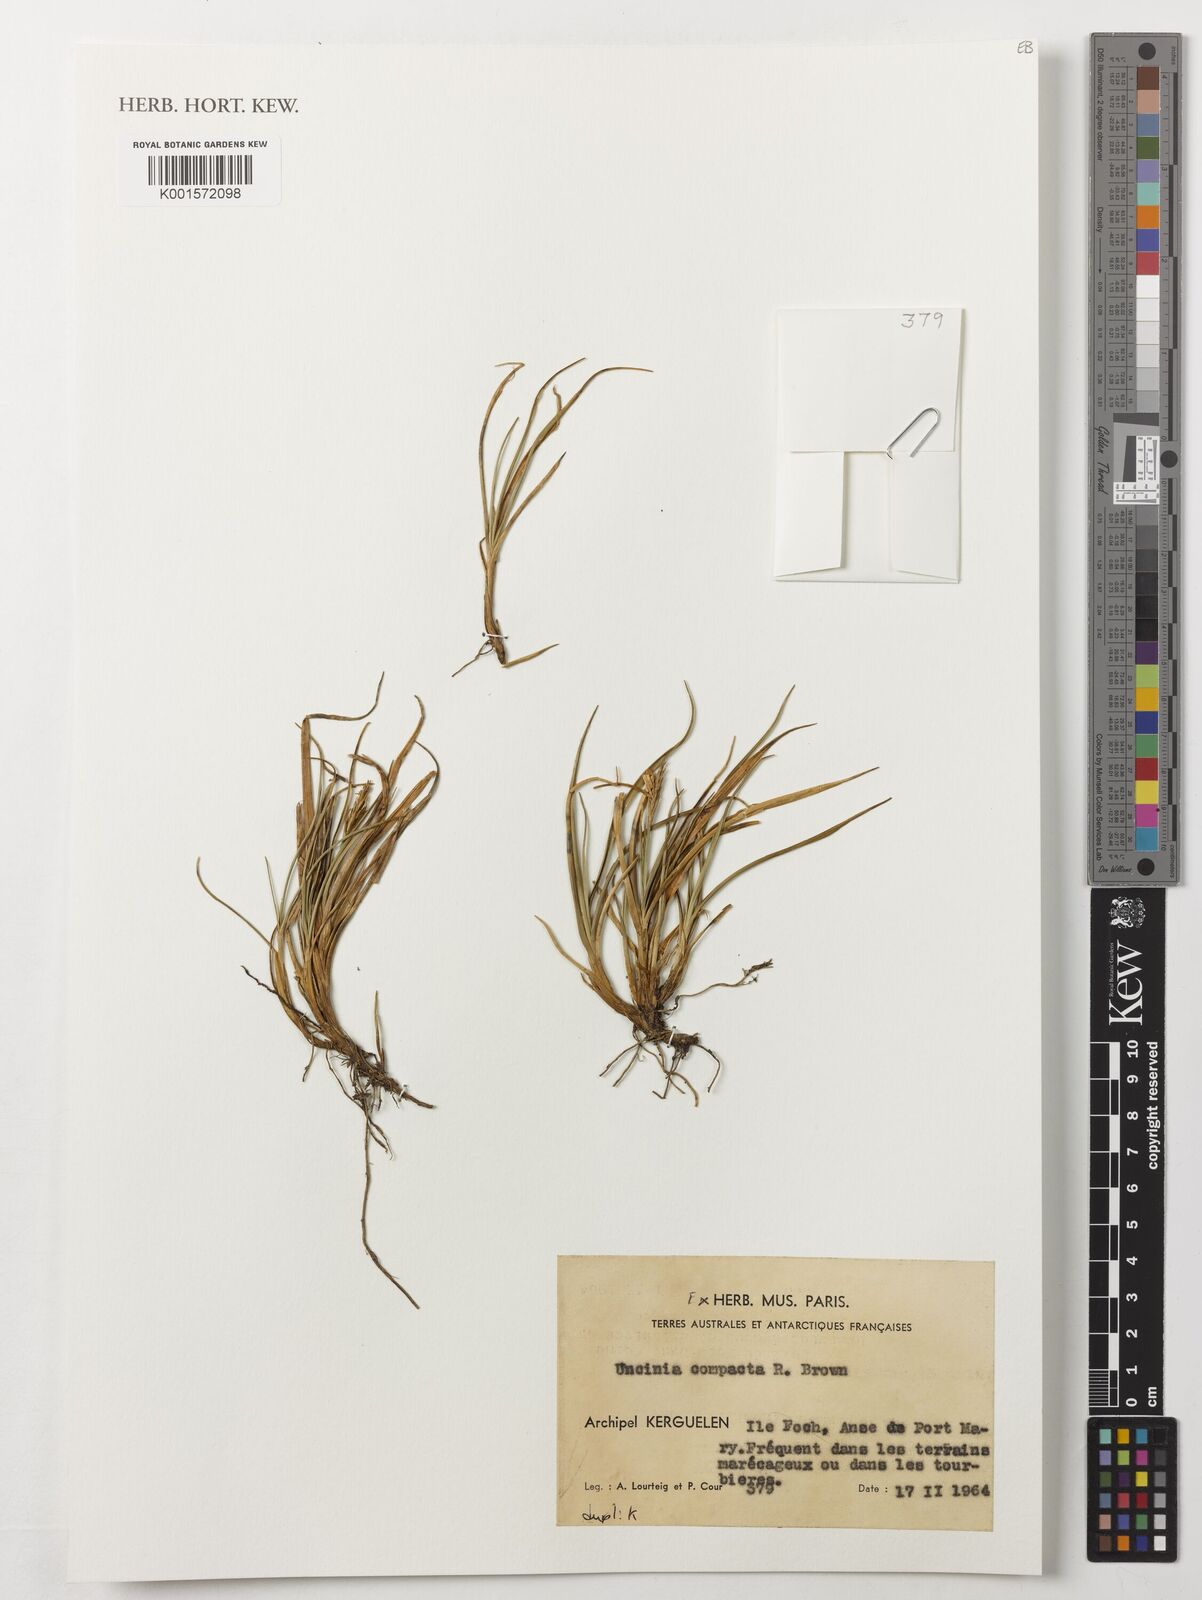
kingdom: Plantae
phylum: Tracheophyta
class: Liliopsida
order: Poales
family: Cyperaceae
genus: Carex
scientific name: Carex austrocompacta
